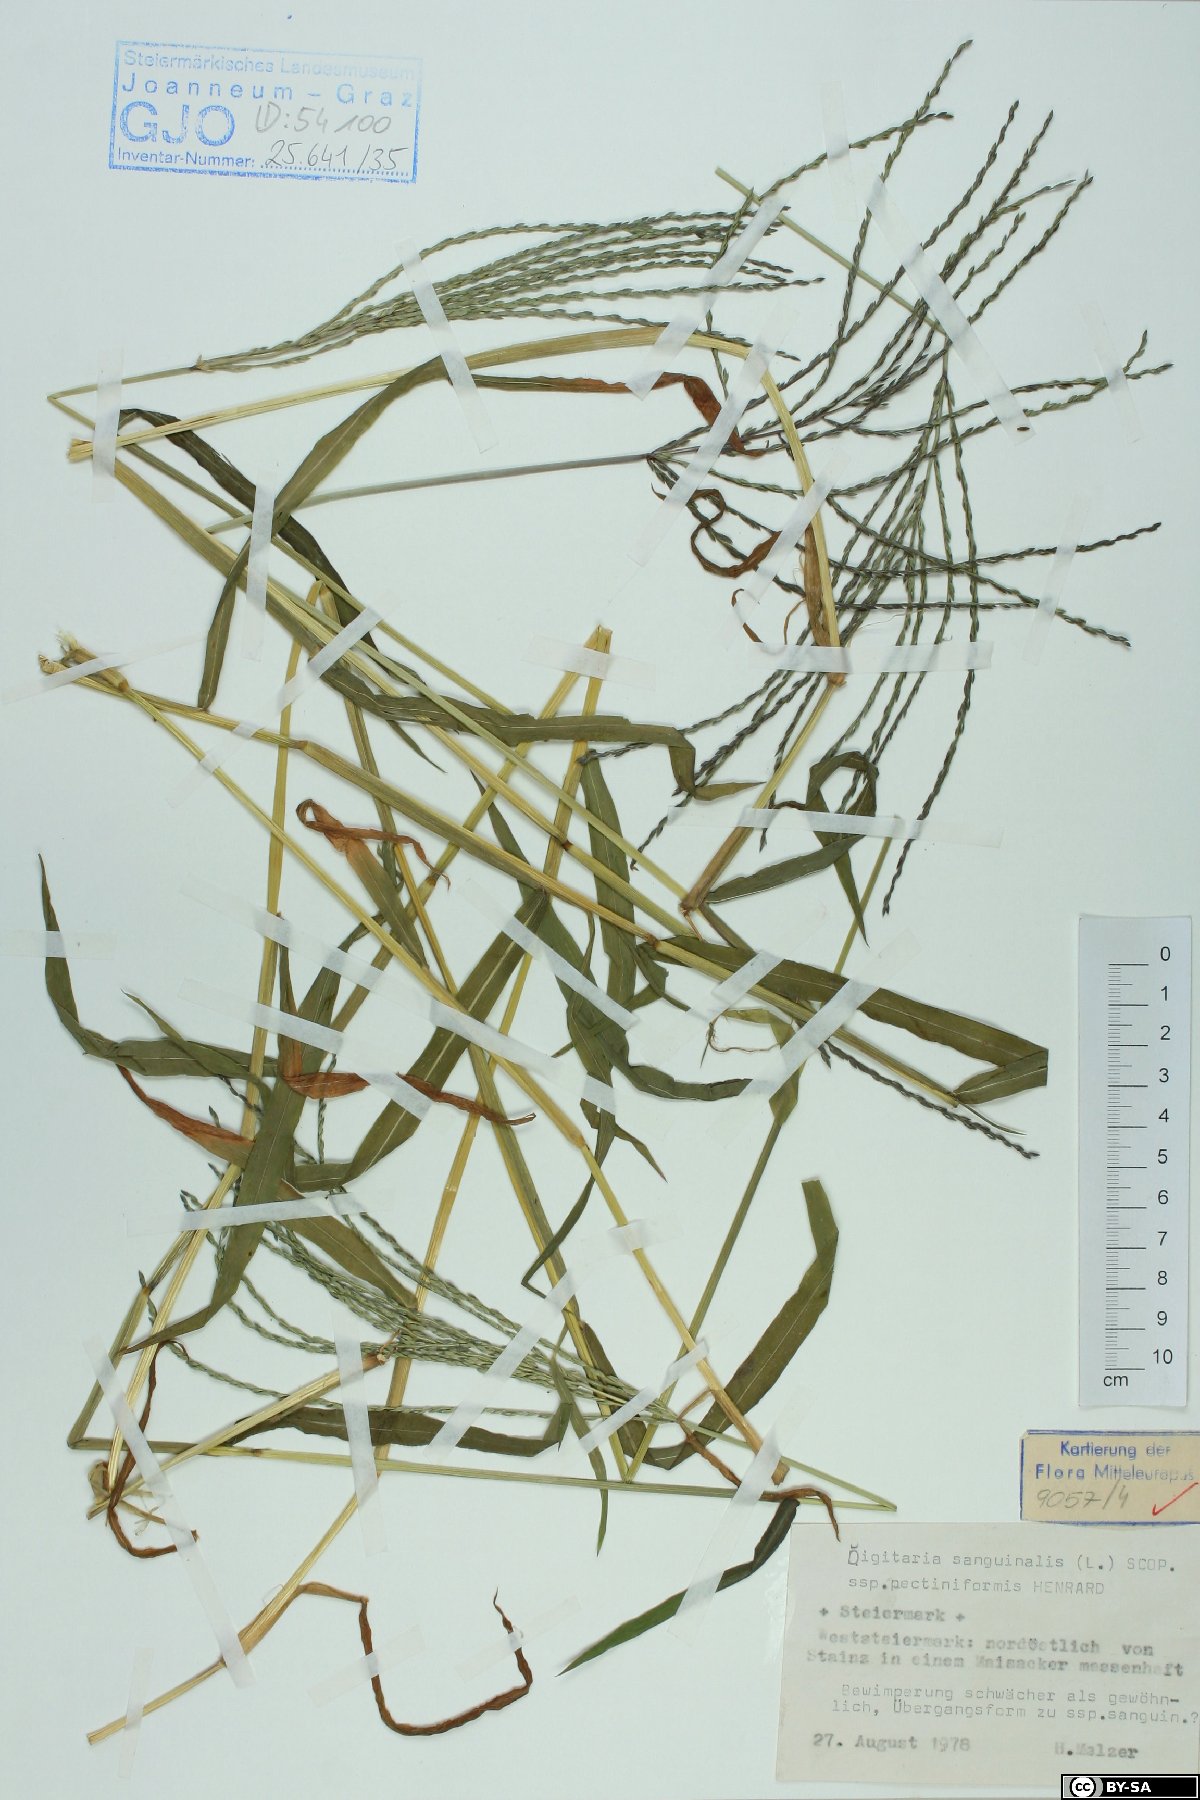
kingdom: Plantae
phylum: Tracheophyta
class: Liliopsida
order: Poales
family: Poaceae
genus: Digitaria
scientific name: Digitaria sanguinalis
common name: Hairy crabgrass
